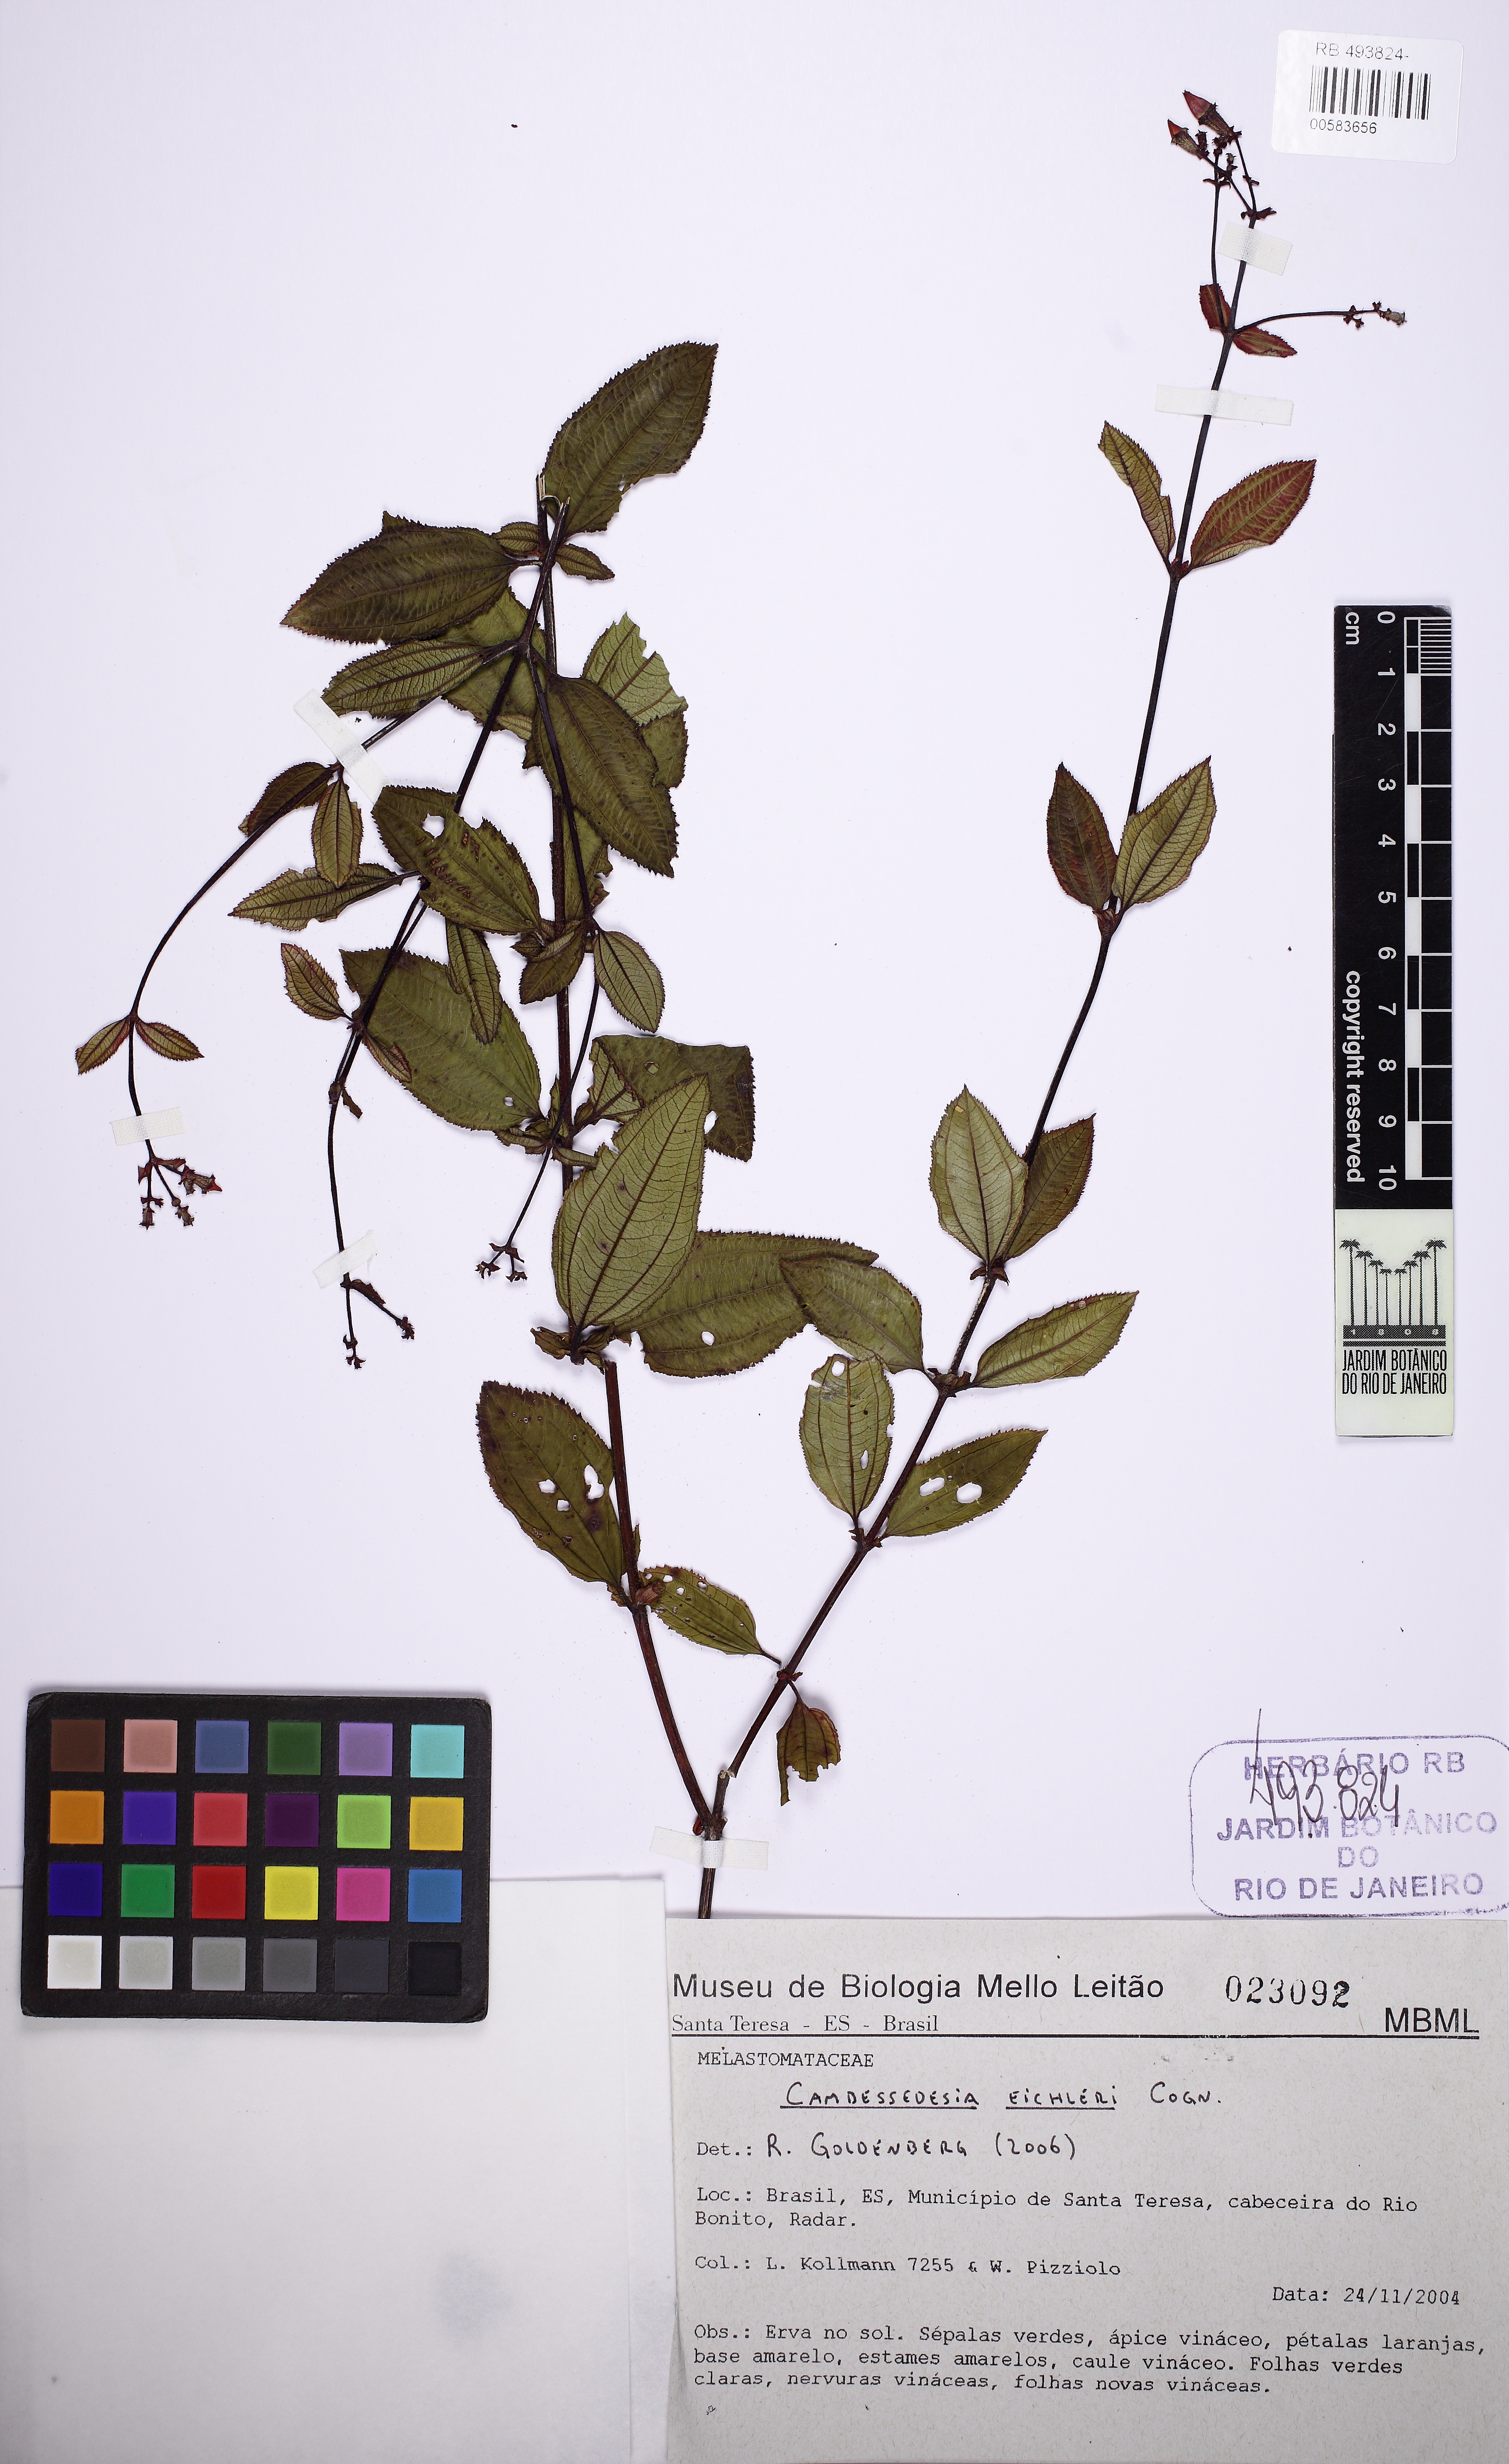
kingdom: Plantae
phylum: Tracheophyta
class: Magnoliopsida
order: Myrtales
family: Melastomataceae
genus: Cambessedesia
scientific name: Cambessedesia eichleri
